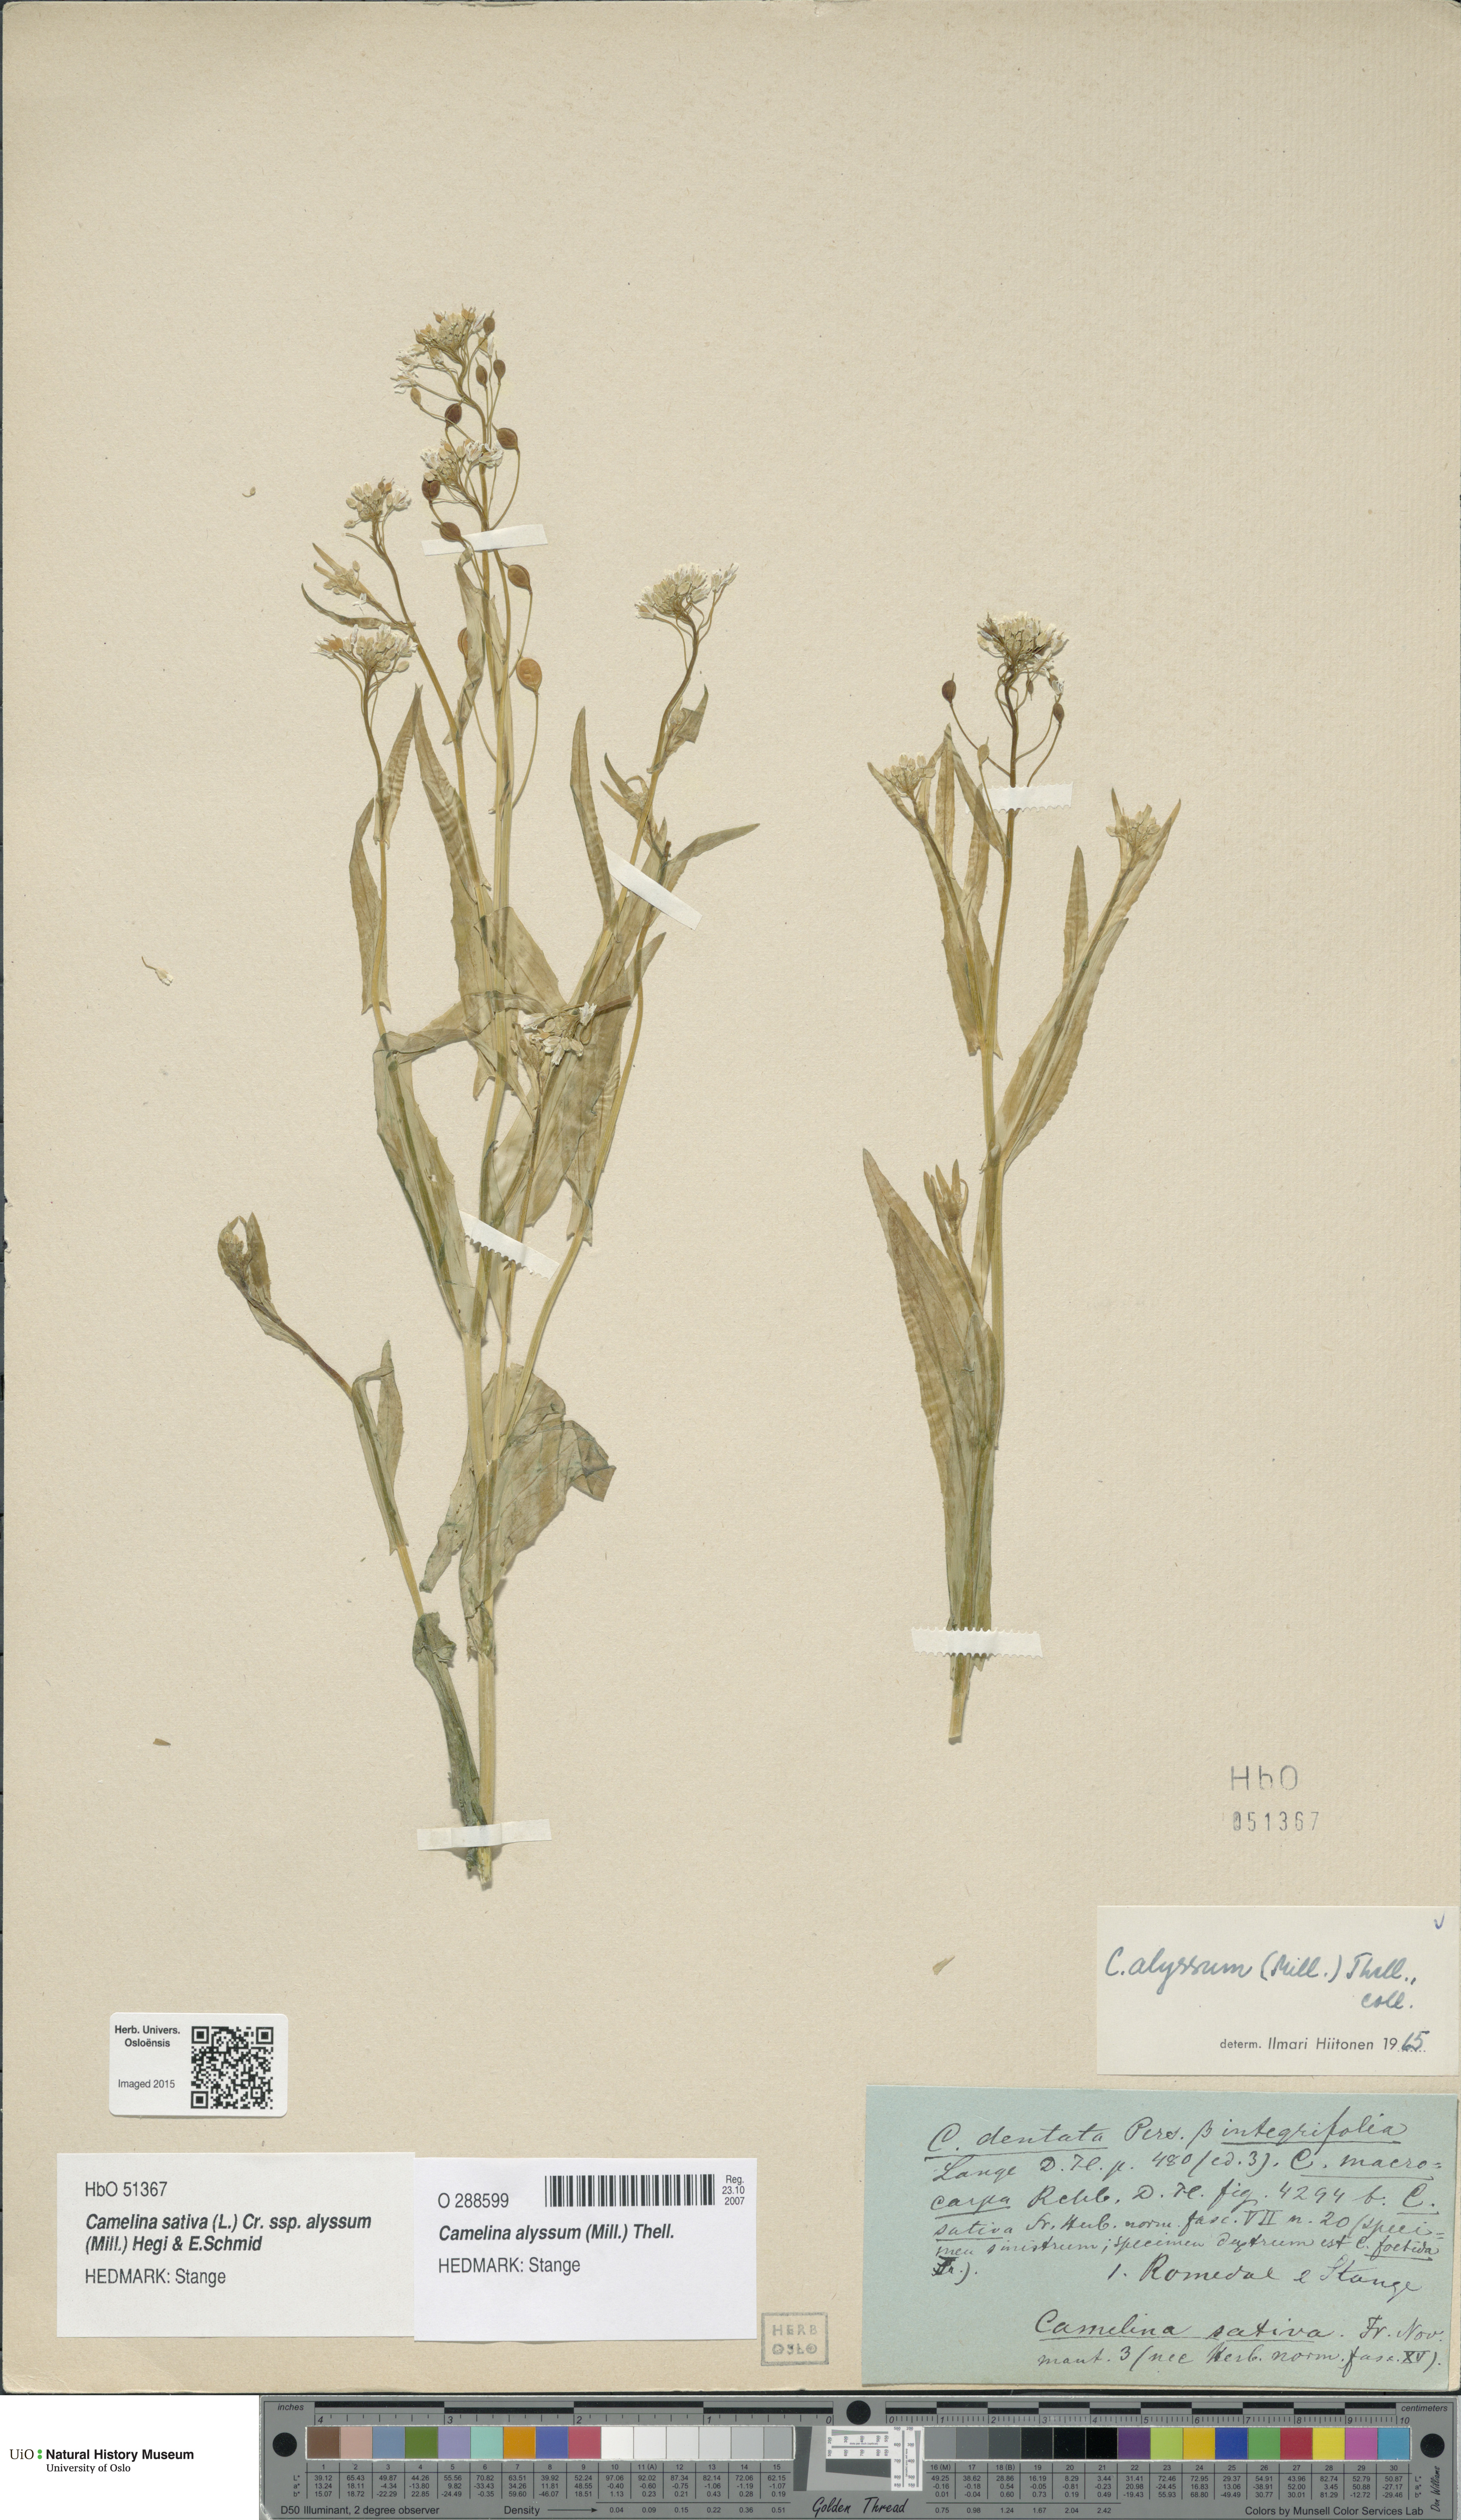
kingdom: Plantae
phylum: Tracheophyta
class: Magnoliopsida
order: Brassicales
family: Brassicaceae
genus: Camelina
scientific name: Camelina alyssum
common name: Gold-of-pleasure
